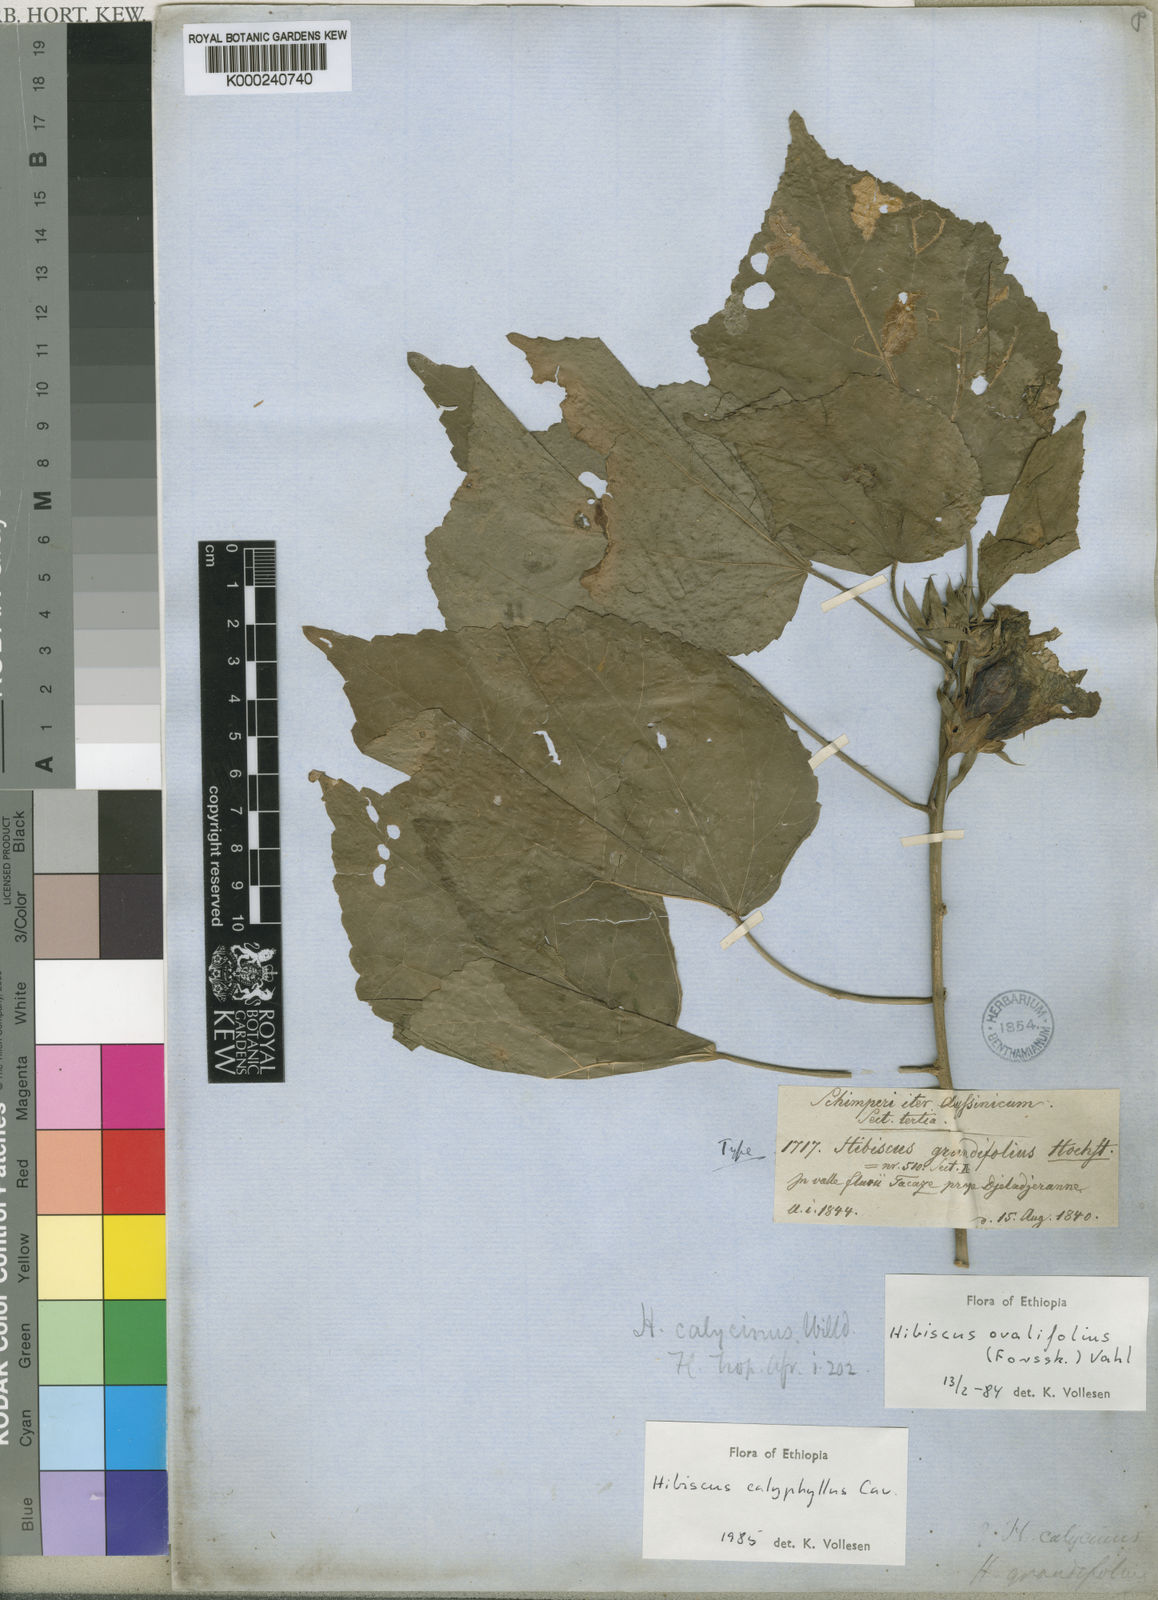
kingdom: Plantae
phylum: Tracheophyta
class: Magnoliopsida
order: Malvales
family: Malvaceae
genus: Hibiscus
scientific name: Hibiscus calyphyllus
